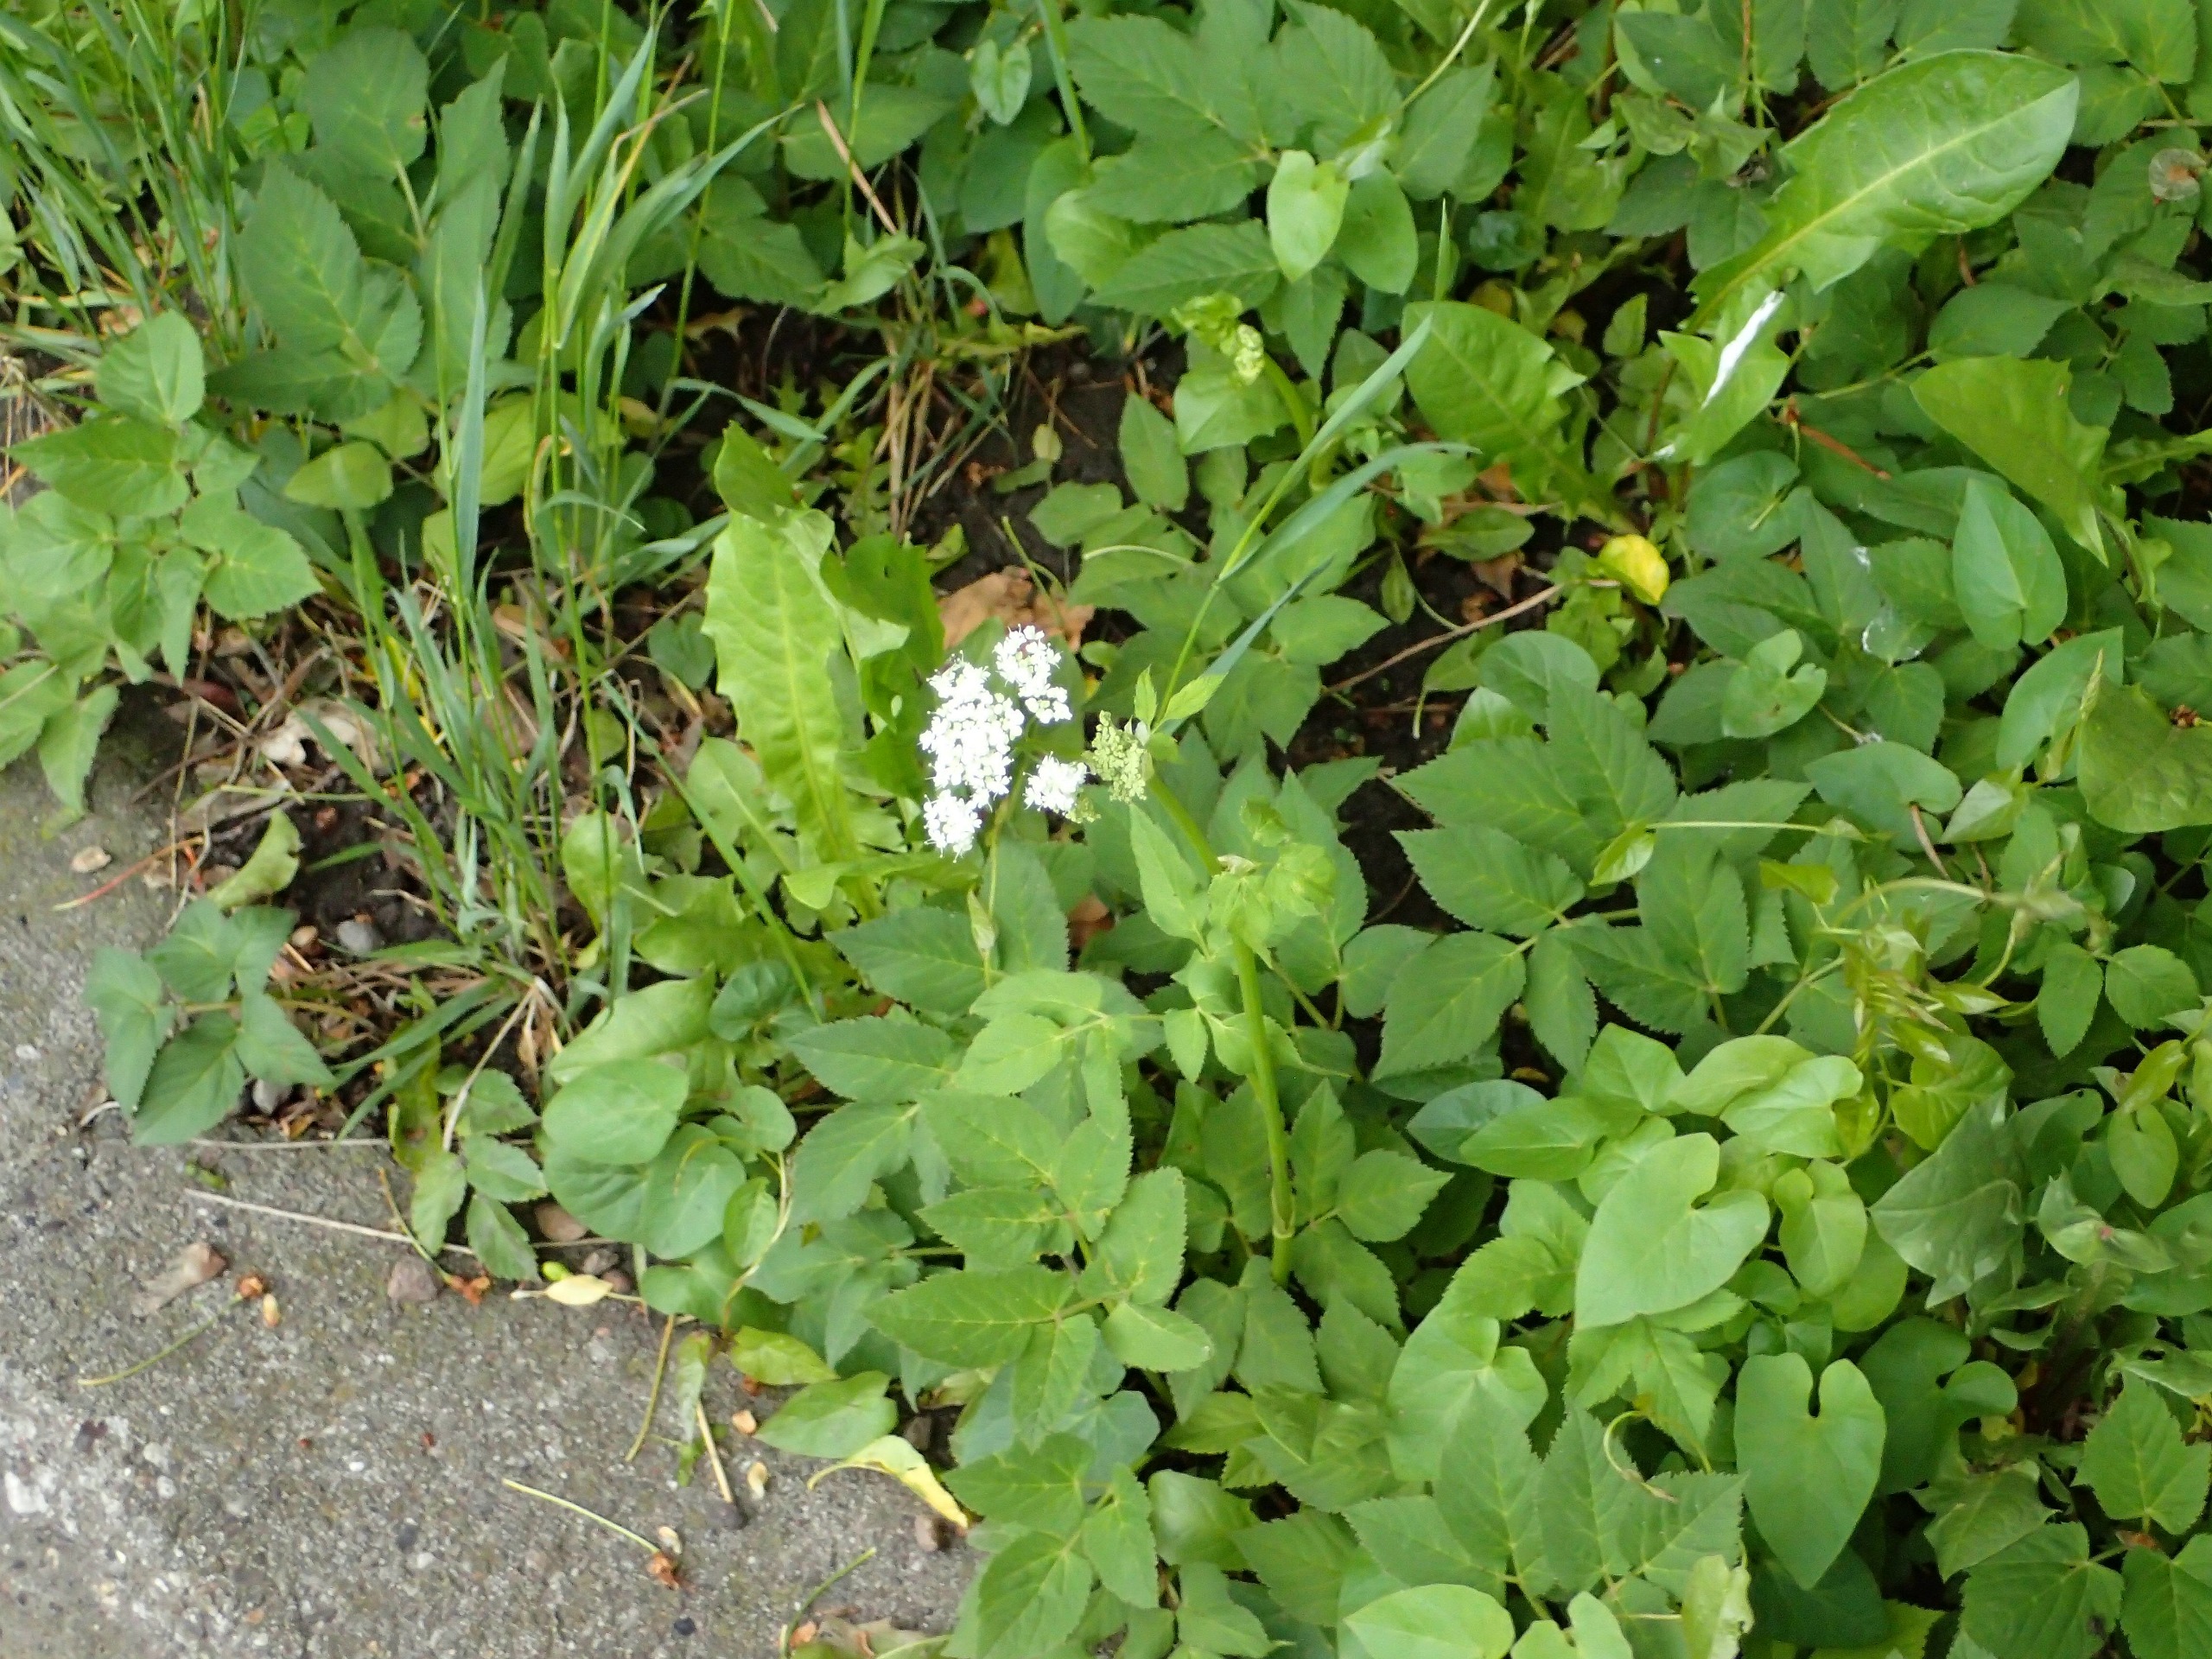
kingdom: Plantae
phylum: Tracheophyta
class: Magnoliopsida
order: Apiales
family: Apiaceae
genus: Aegopodium
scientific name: Aegopodium podagraria
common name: Skvalderkål
